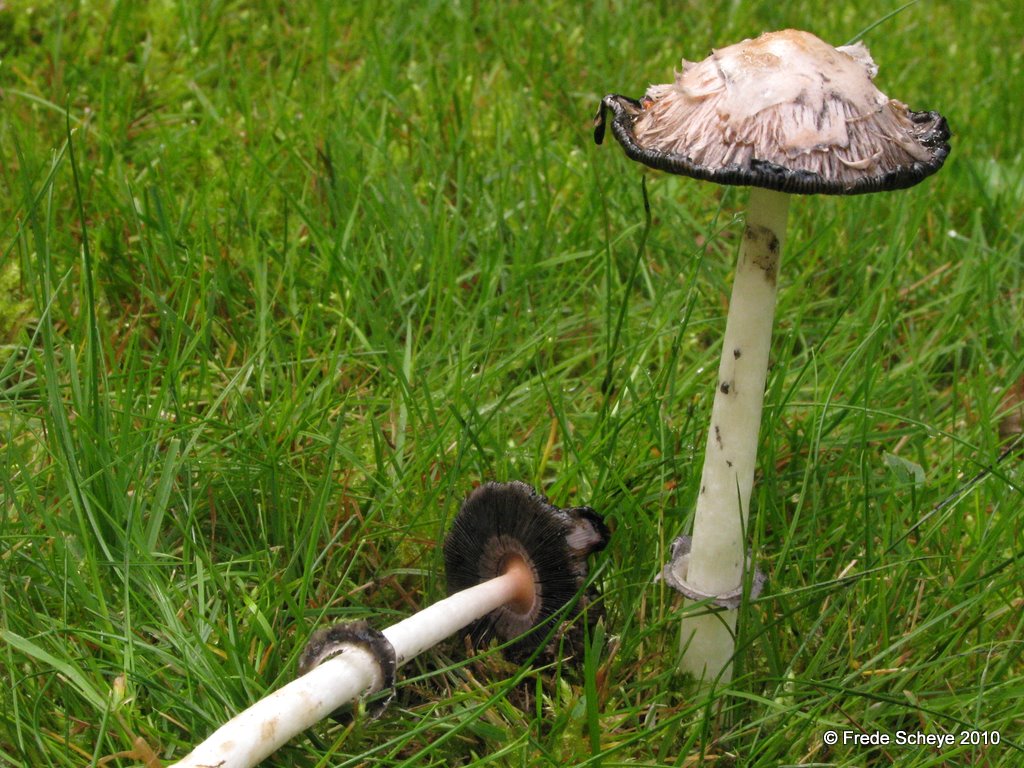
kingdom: Fungi
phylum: Basidiomycota
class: Agaricomycetes
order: Agaricales
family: Agaricaceae
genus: Coprinus
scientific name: Coprinus comatus
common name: stor parykhat
